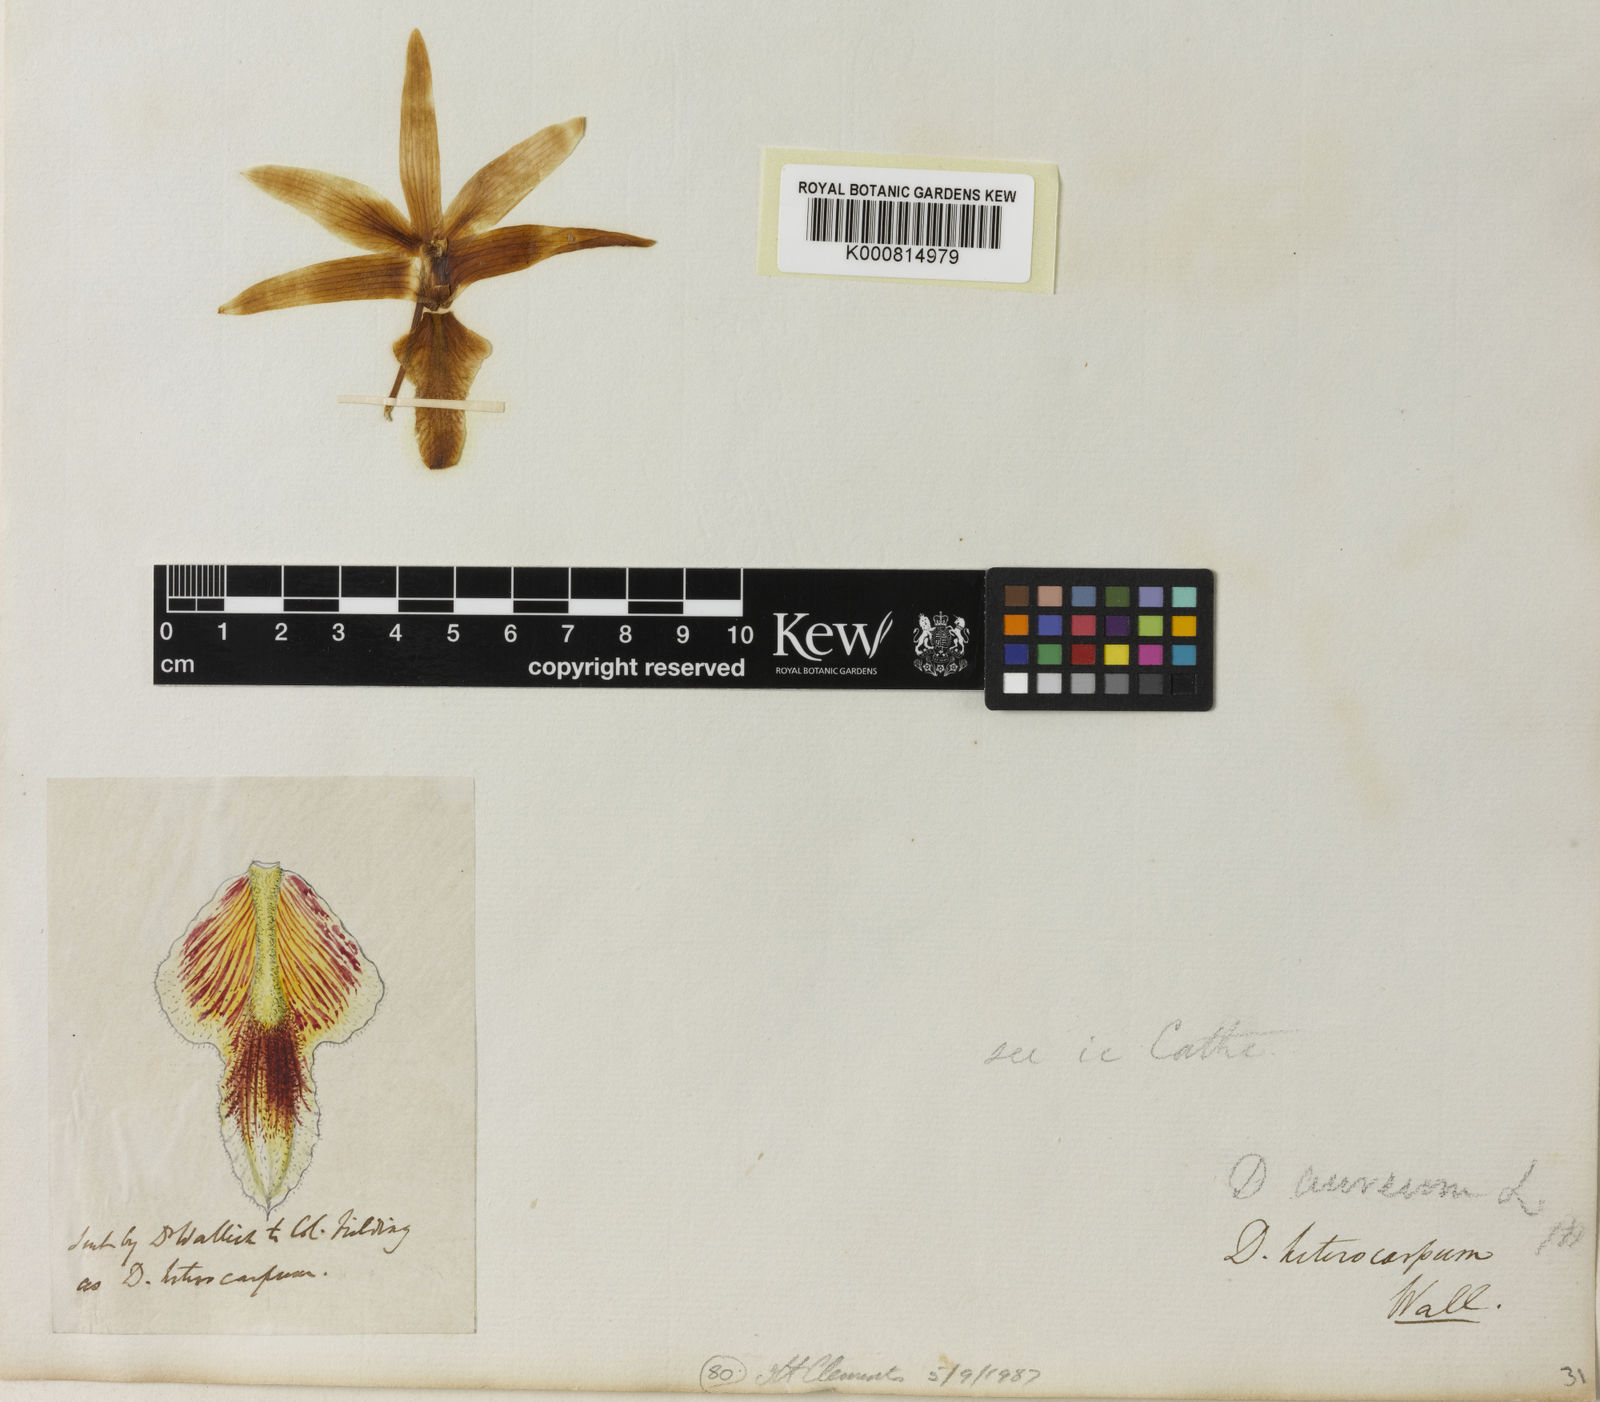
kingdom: Plantae
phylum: Tracheophyta
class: Liliopsida
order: Asparagales
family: Orchidaceae
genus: Dendrobium
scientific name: Dendrobium heterocarpum
